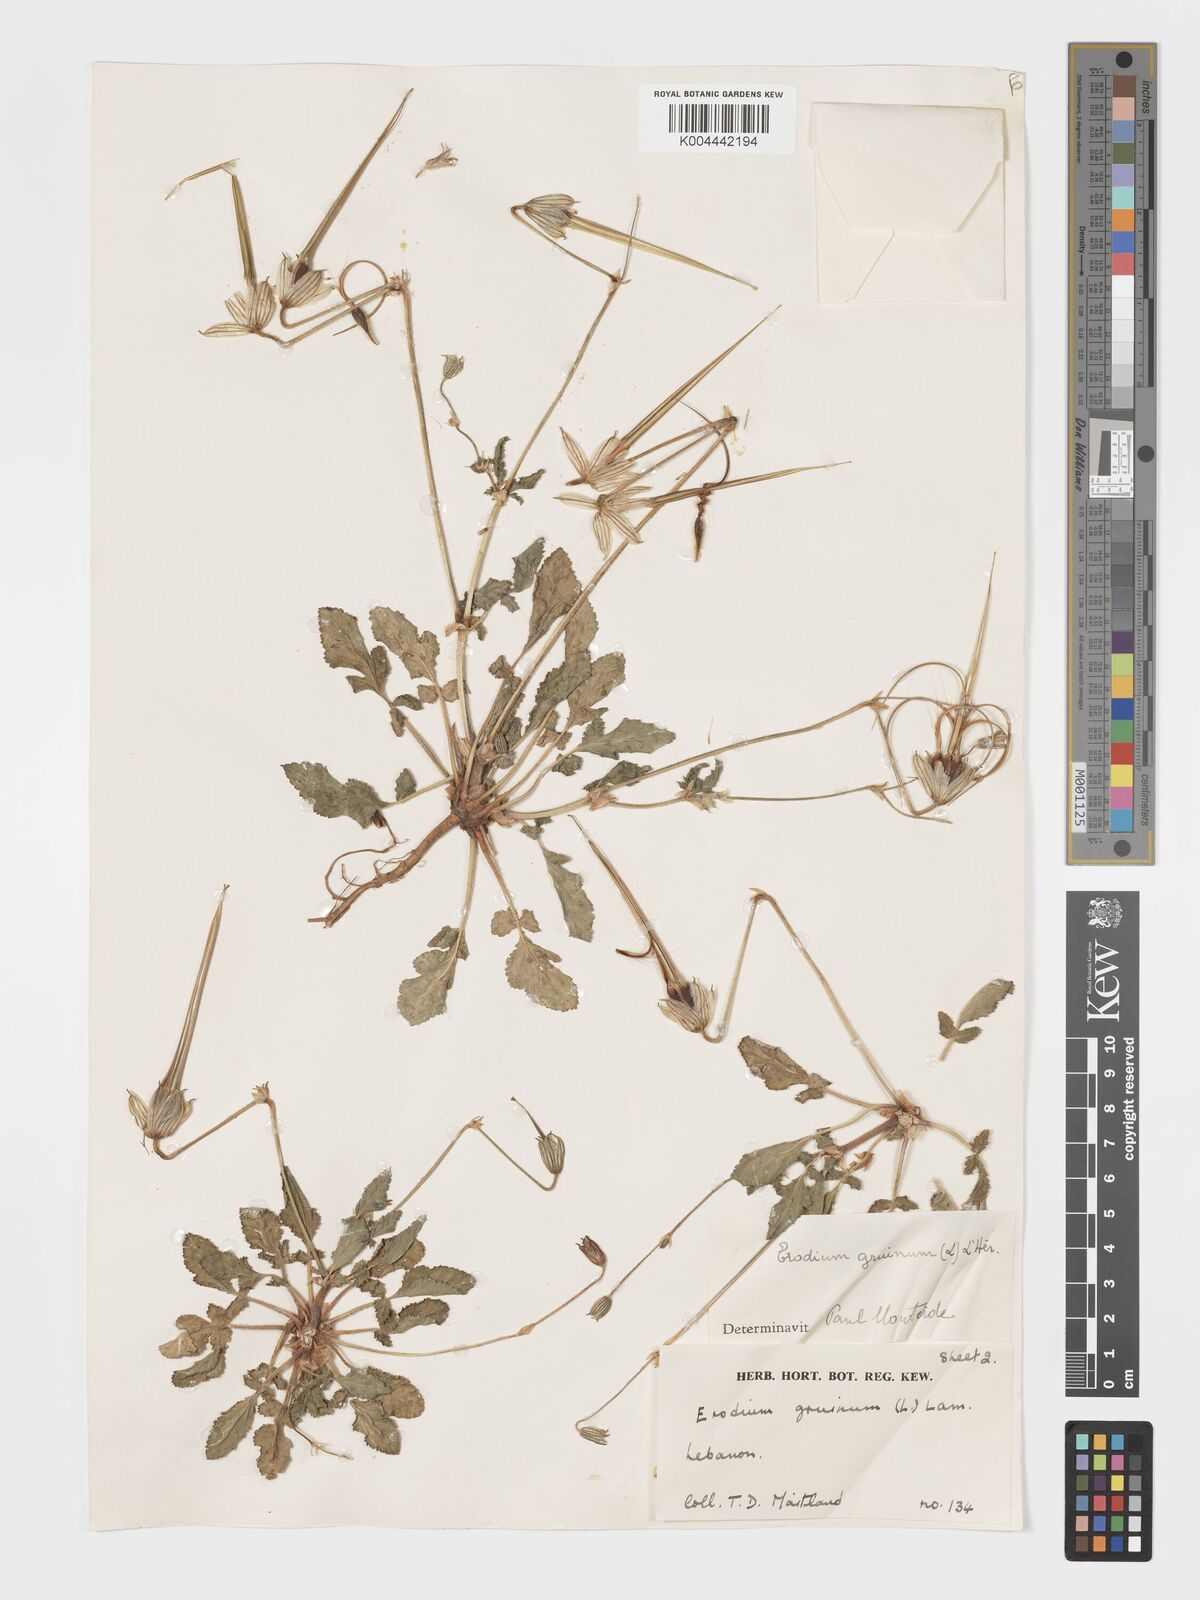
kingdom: Plantae
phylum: Tracheophyta
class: Magnoliopsida
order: Geraniales
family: Geraniaceae
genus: Erodium
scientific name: Erodium gruinum
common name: Iranian stork's bill
